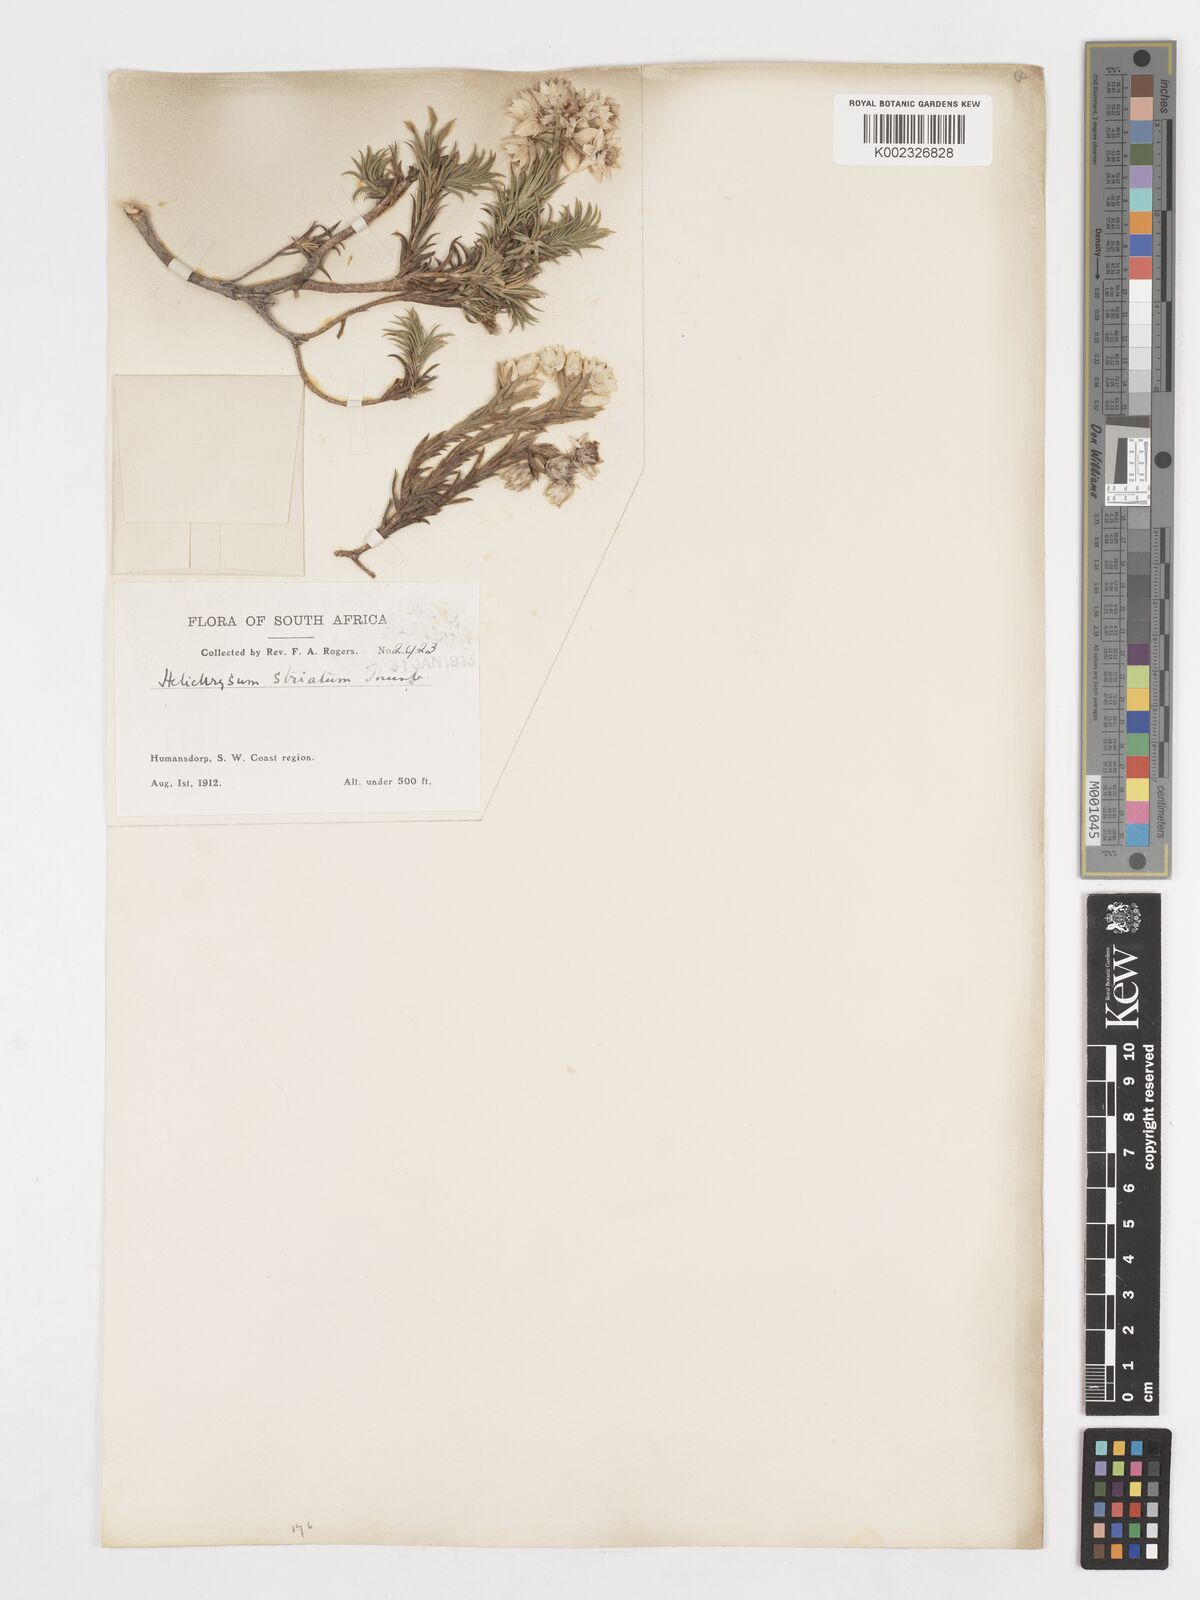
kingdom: Plantae
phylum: Tracheophyta
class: Magnoliopsida
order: Asterales
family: Asteraceae
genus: Achyranthemum
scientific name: Achyranthemum striatum
